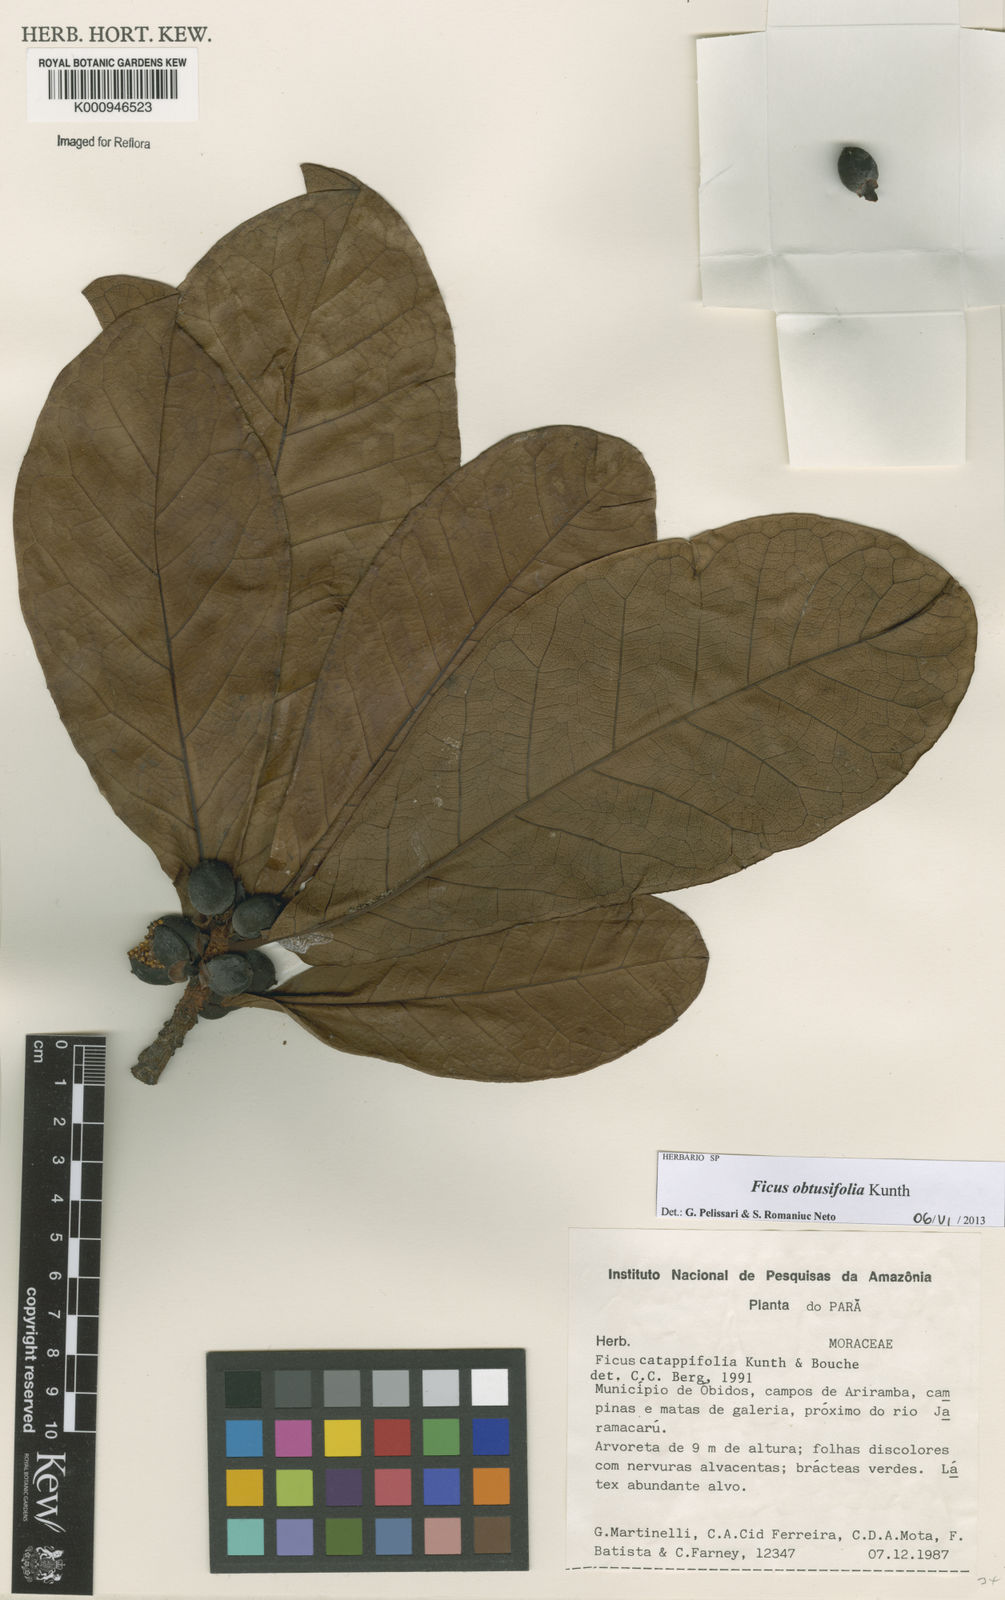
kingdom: Plantae
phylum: Tracheophyta
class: Magnoliopsida
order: Rosales
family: Moraceae
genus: Ficus
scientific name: Ficus obtusifolia
